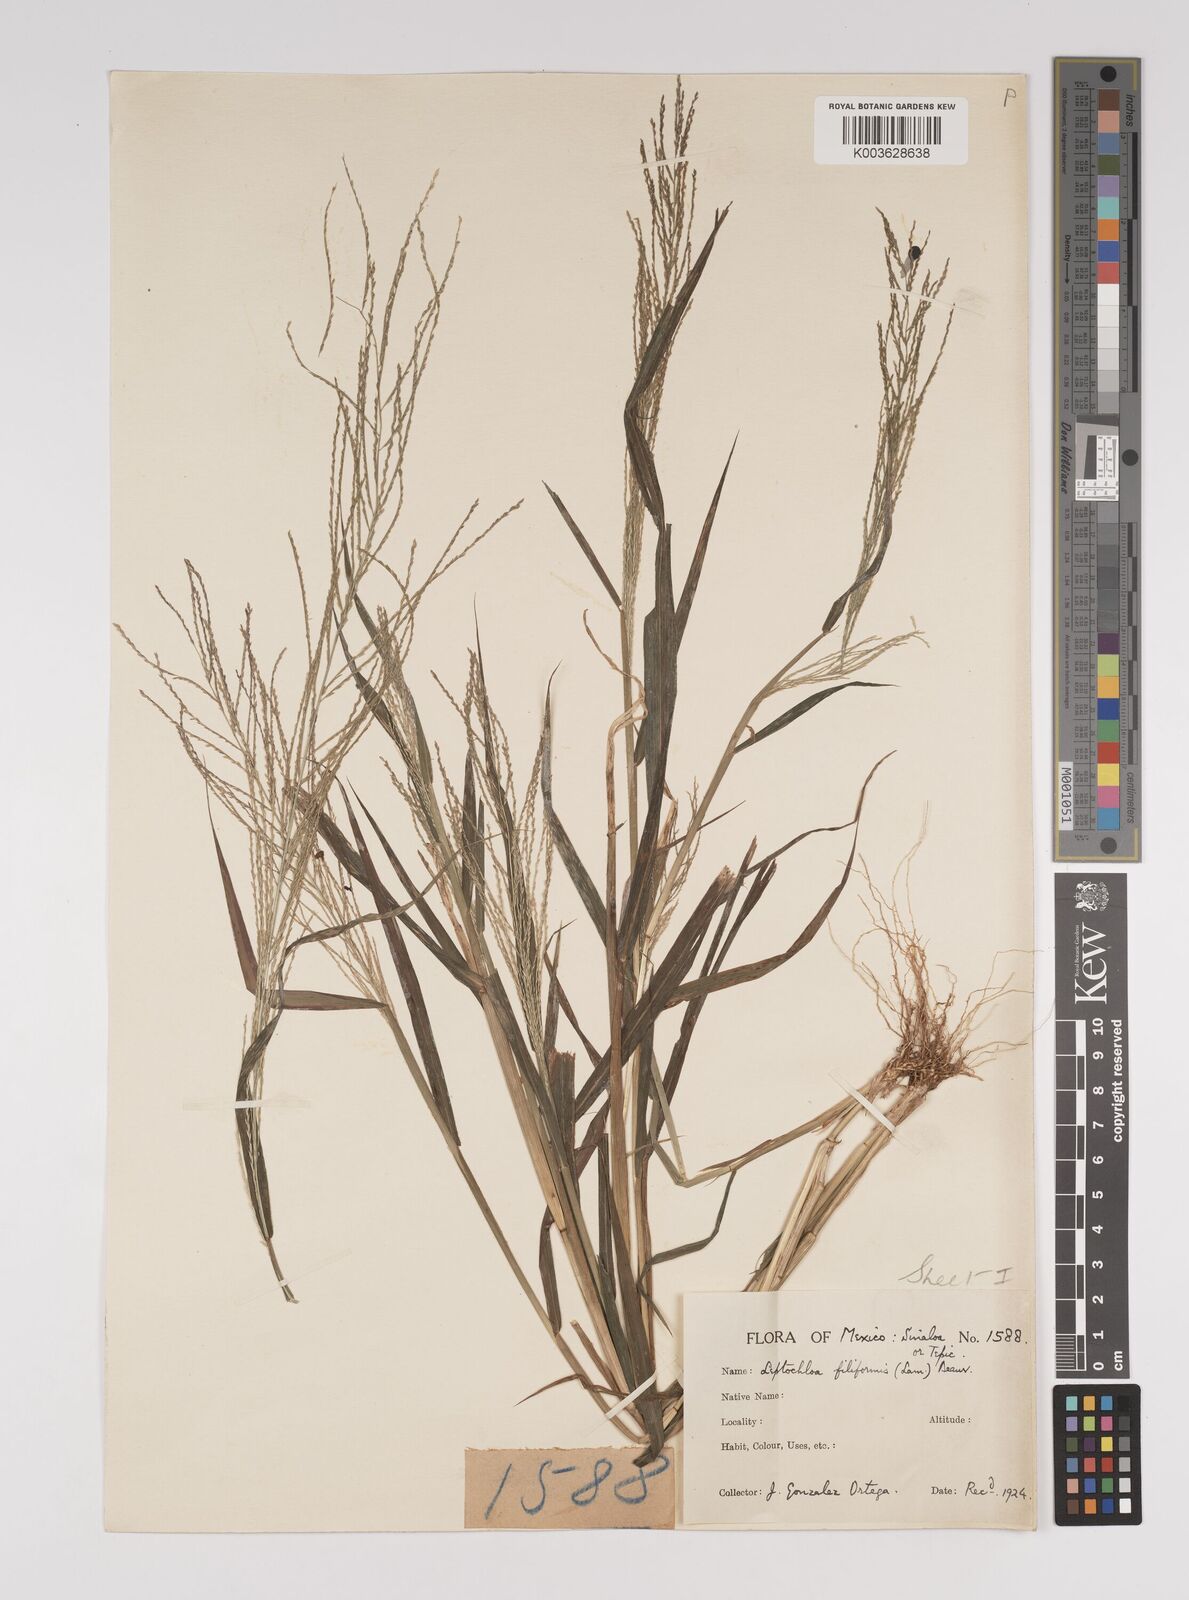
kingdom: Plantae
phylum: Tracheophyta
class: Liliopsida
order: Poales
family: Poaceae
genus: Leptochloa
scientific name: Leptochloa panicea
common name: Mucronate sprangletop
